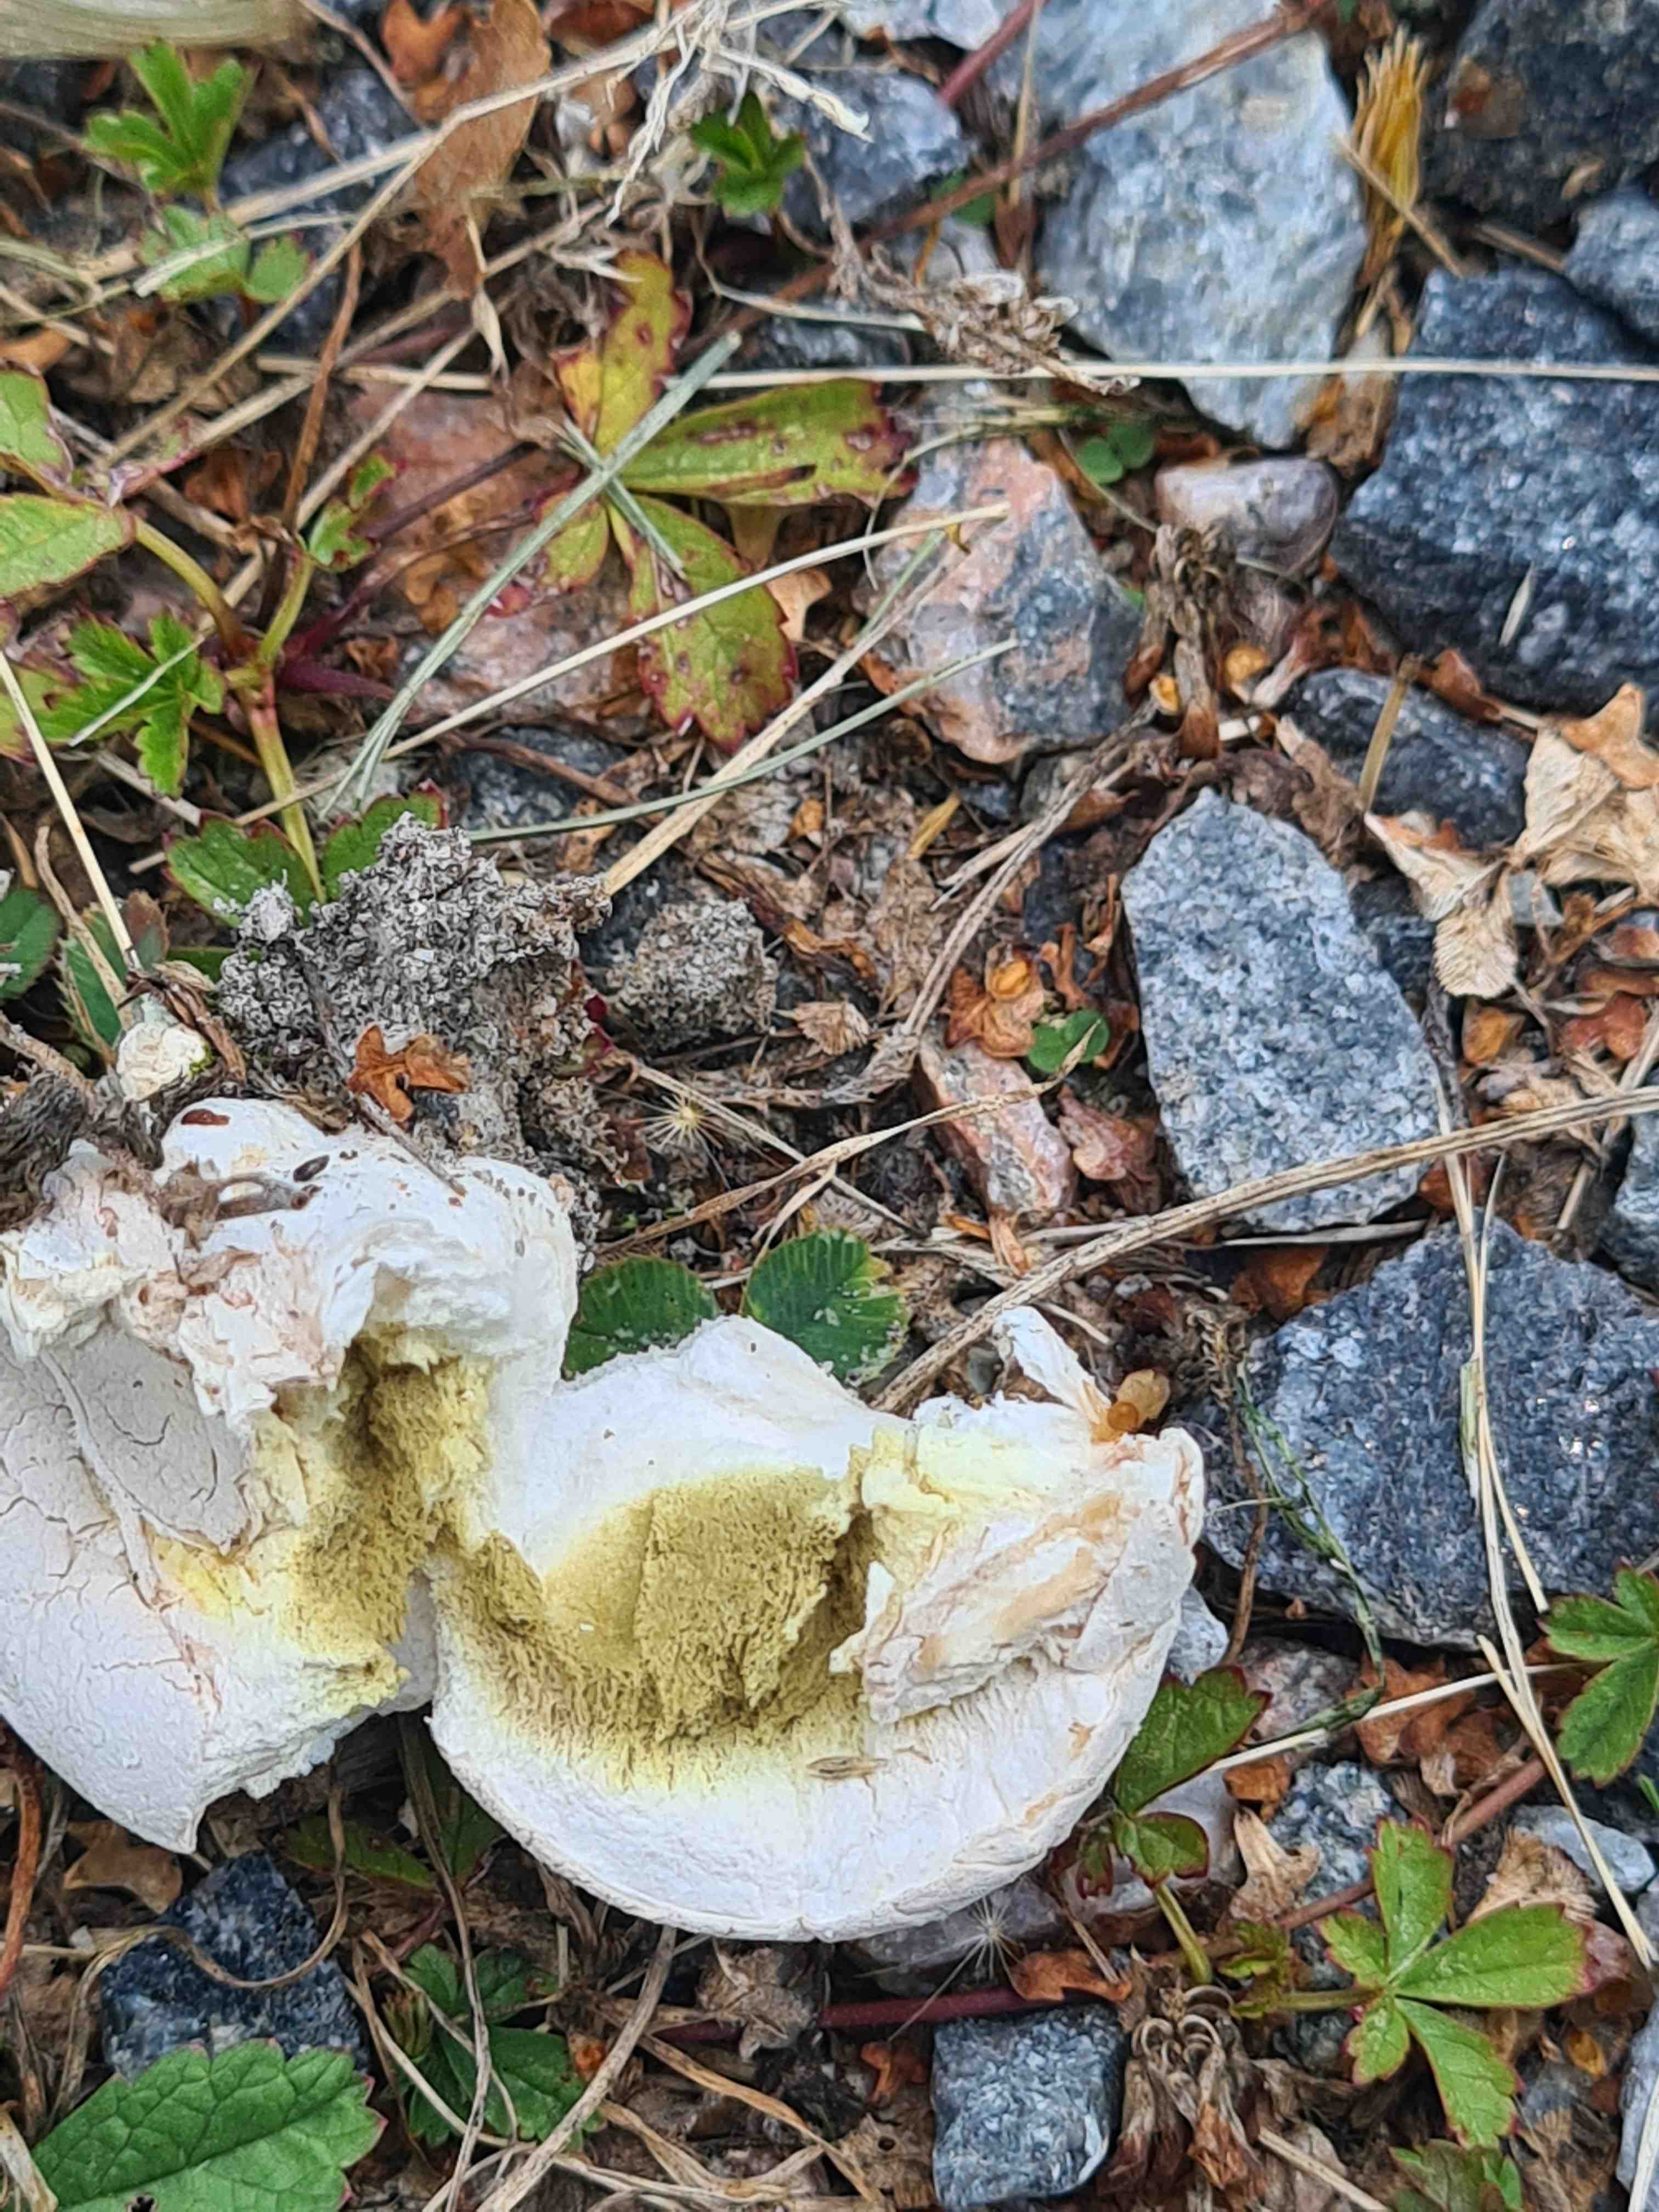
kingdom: Fungi
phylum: Basidiomycota
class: Agaricomycetes
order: Agaricales
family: Agaricaceae
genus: Lycoperdon
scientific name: Lycoperdon
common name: støvbold
